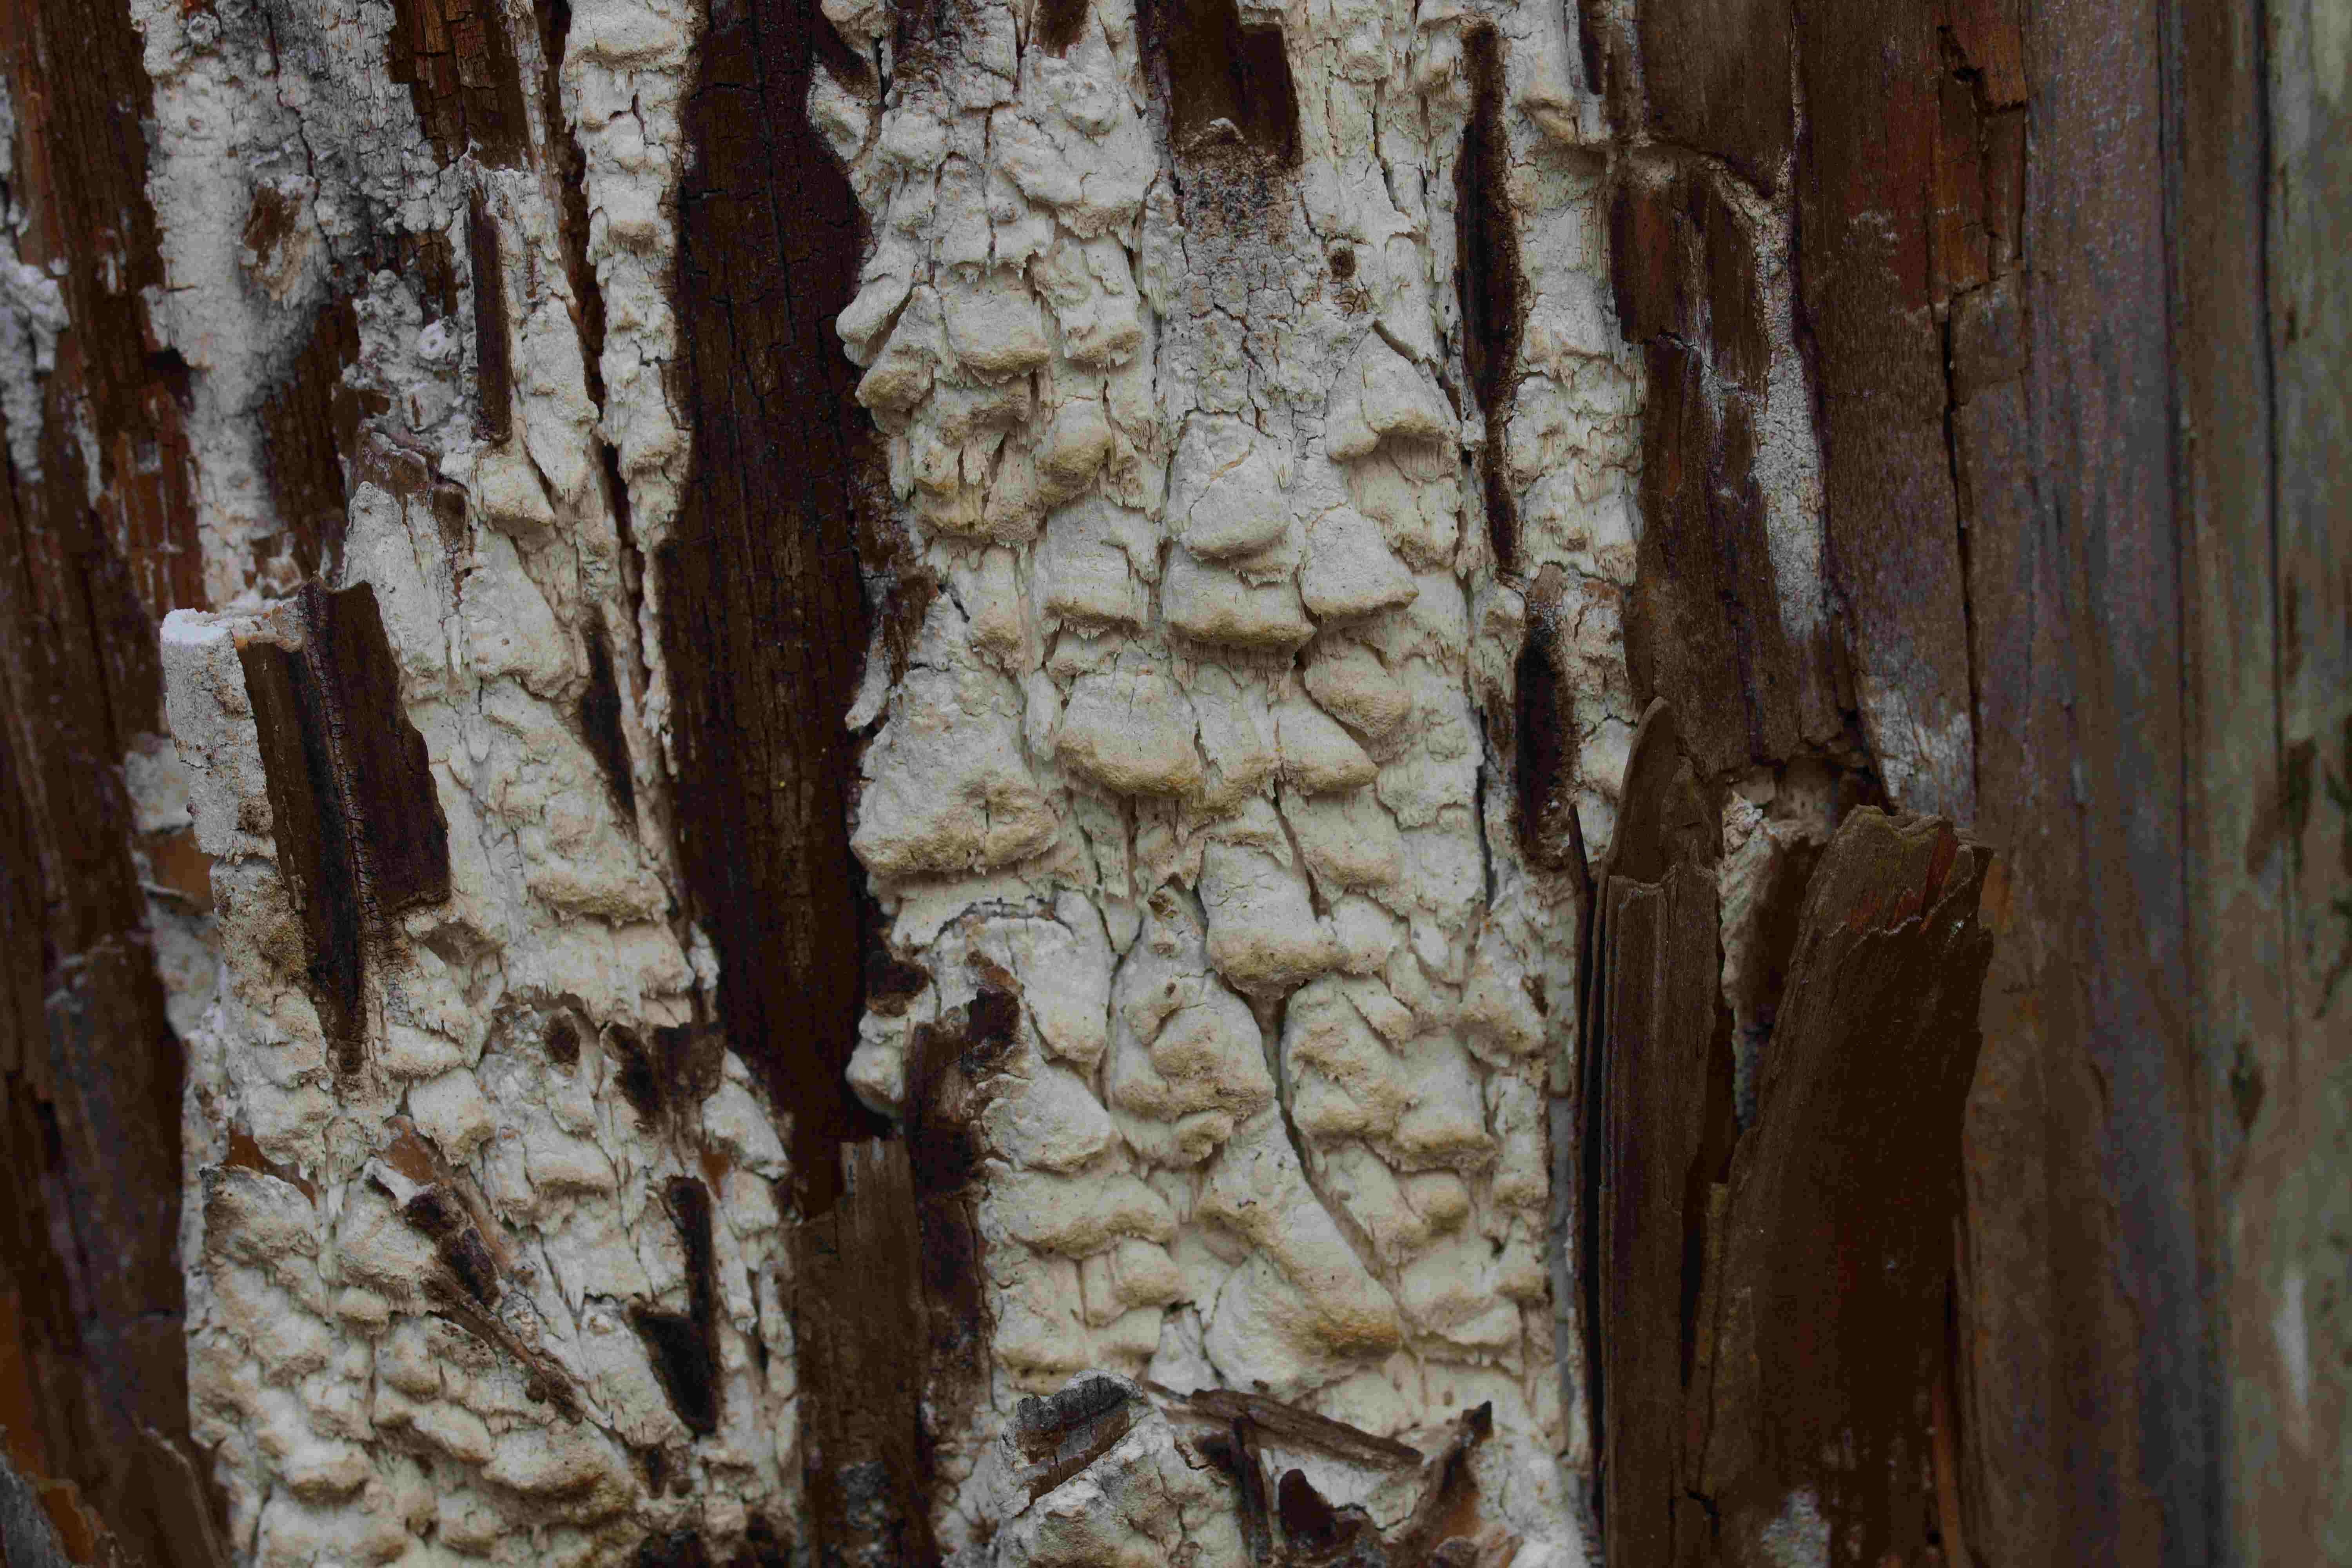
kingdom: Fungi
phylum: Basidiomycota
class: Agaricomycetes
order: Polyporales
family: Fomitopsidaceae
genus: Daedalea
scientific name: Daedalea xantha
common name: gul sejporesvamp
